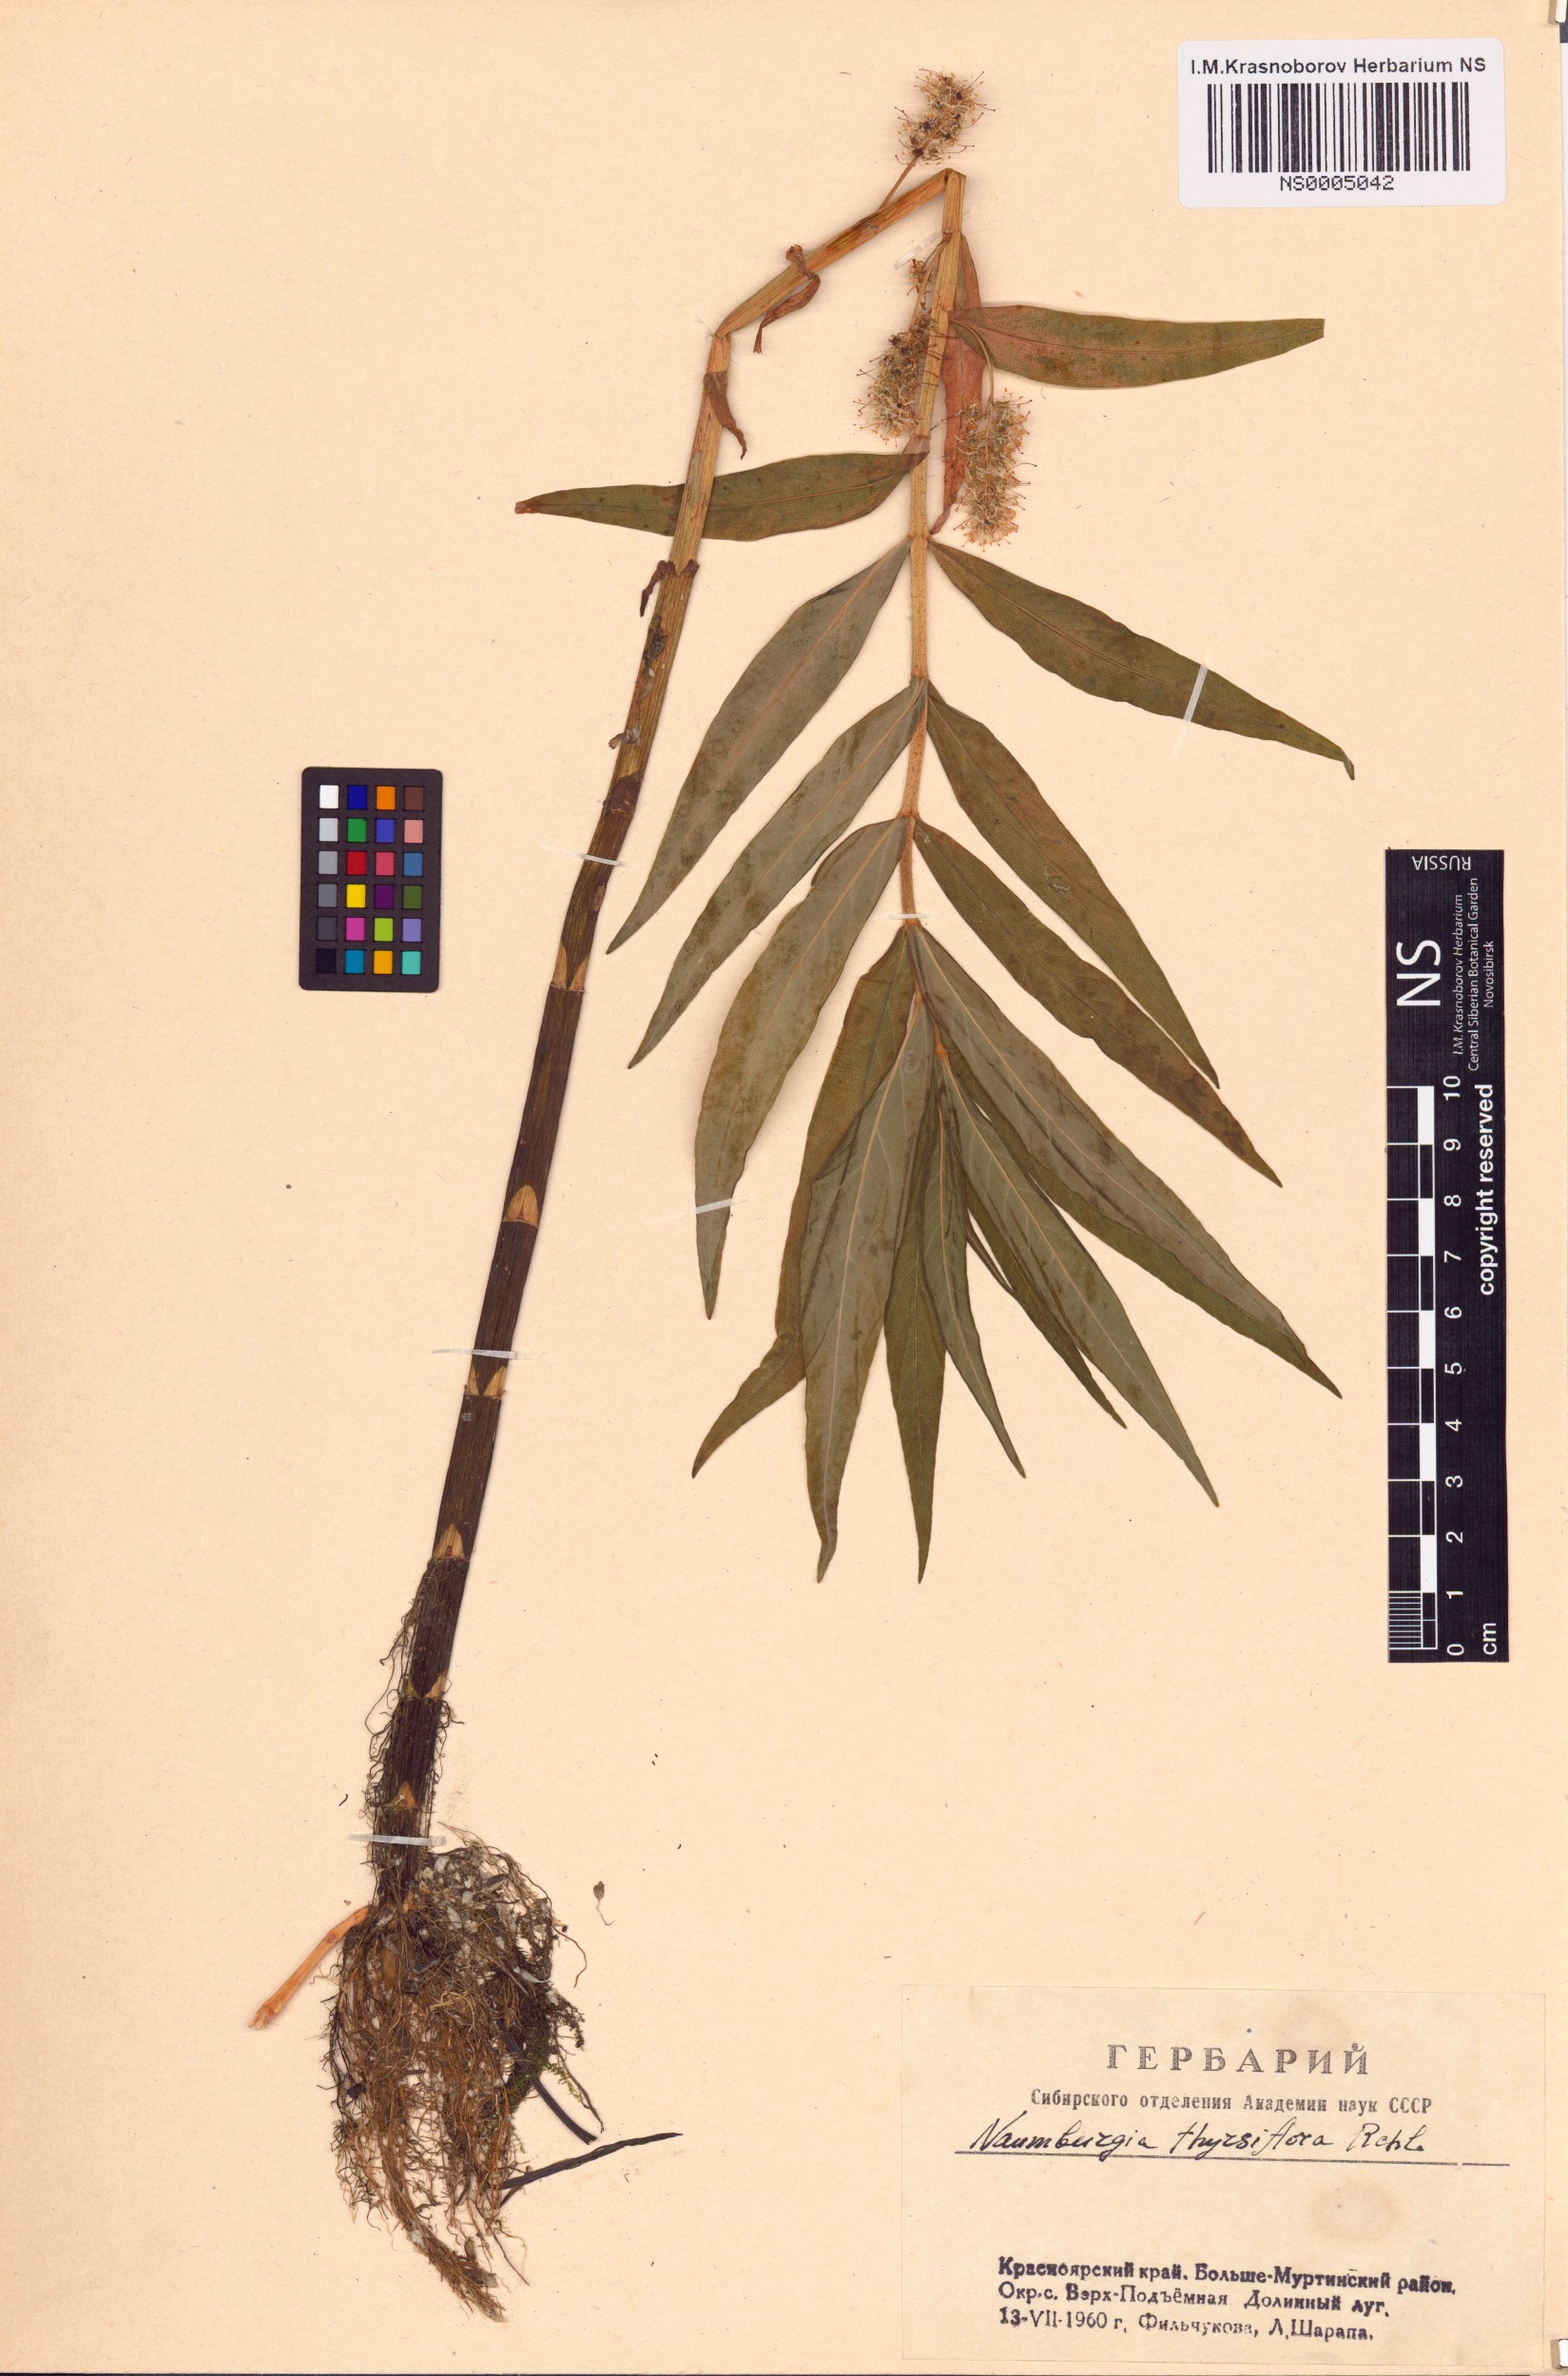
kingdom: Plantae
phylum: Tracheophyta
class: Magnoliopsida
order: Ericales
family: Primulaceae
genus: Lysimachia
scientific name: Lysimachia thyrsiflora
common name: Tufted loosestrife
